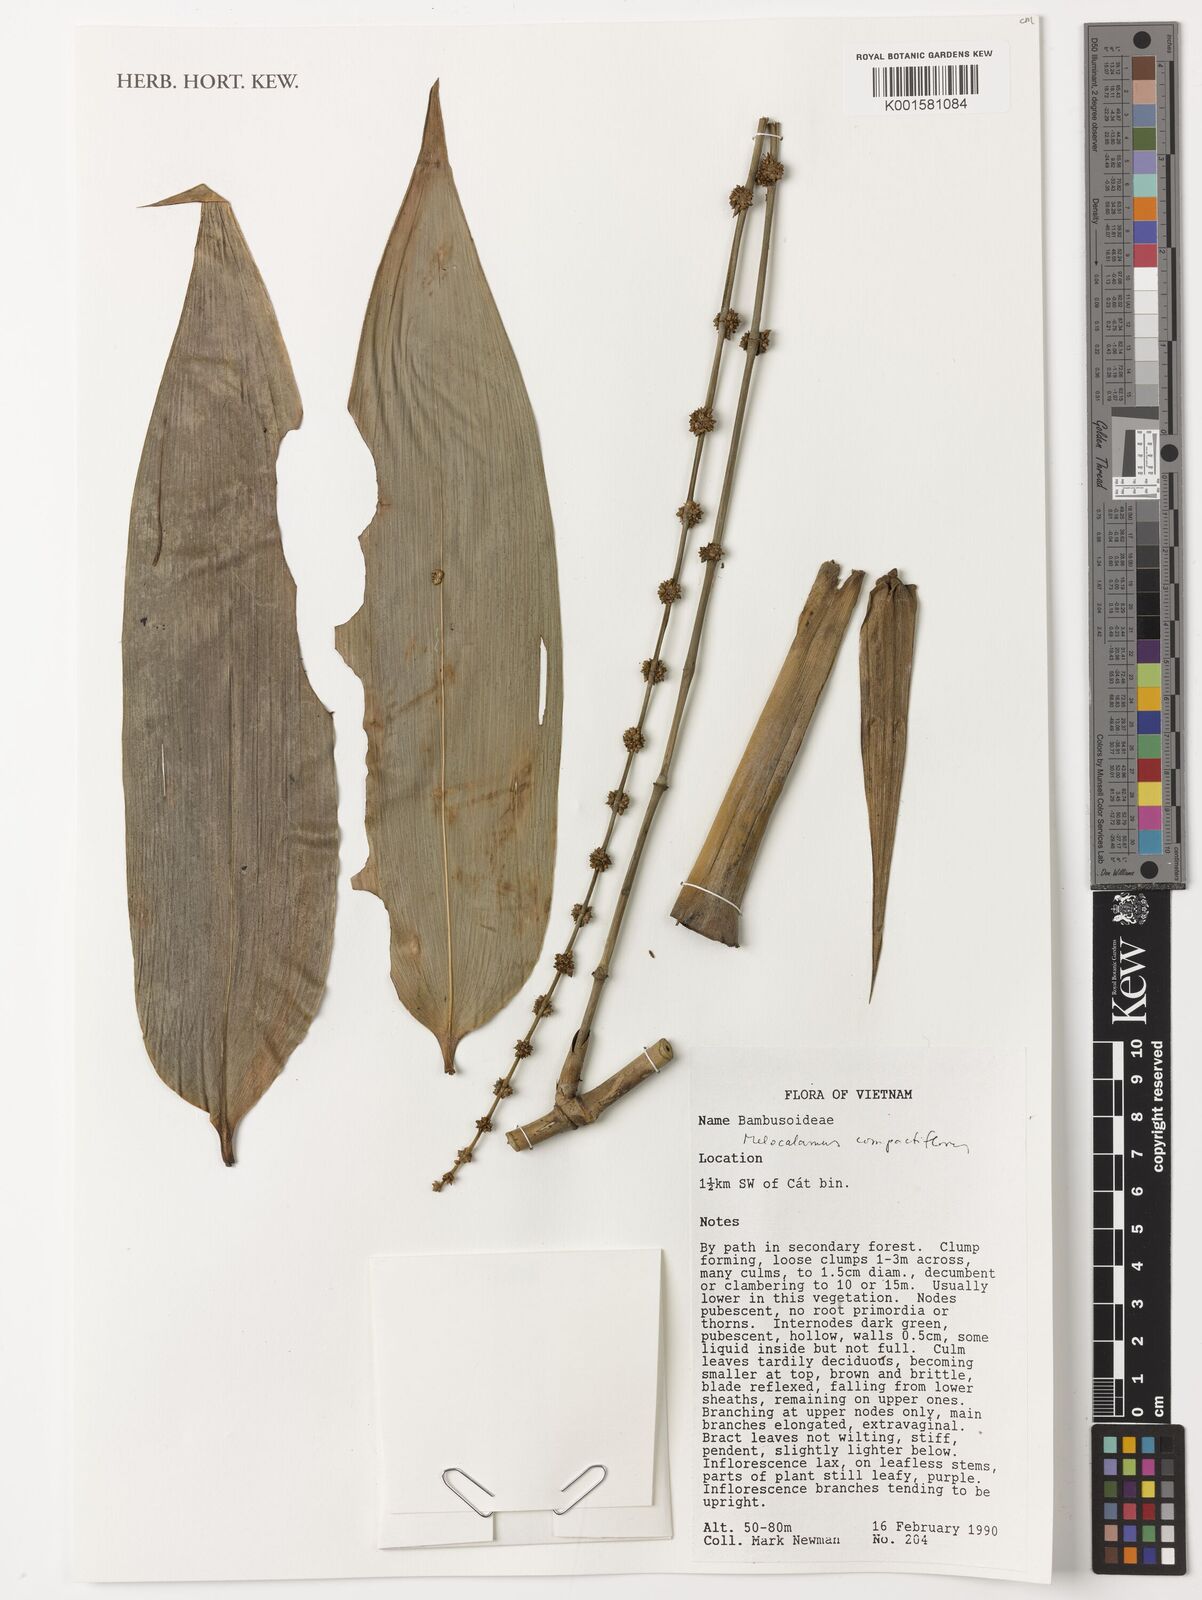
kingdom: Plantae
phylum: Tracheophyta
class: Liliopsida
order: Poales
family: Poaceae
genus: Melocalamus
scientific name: Melocalamus compactiflorus
